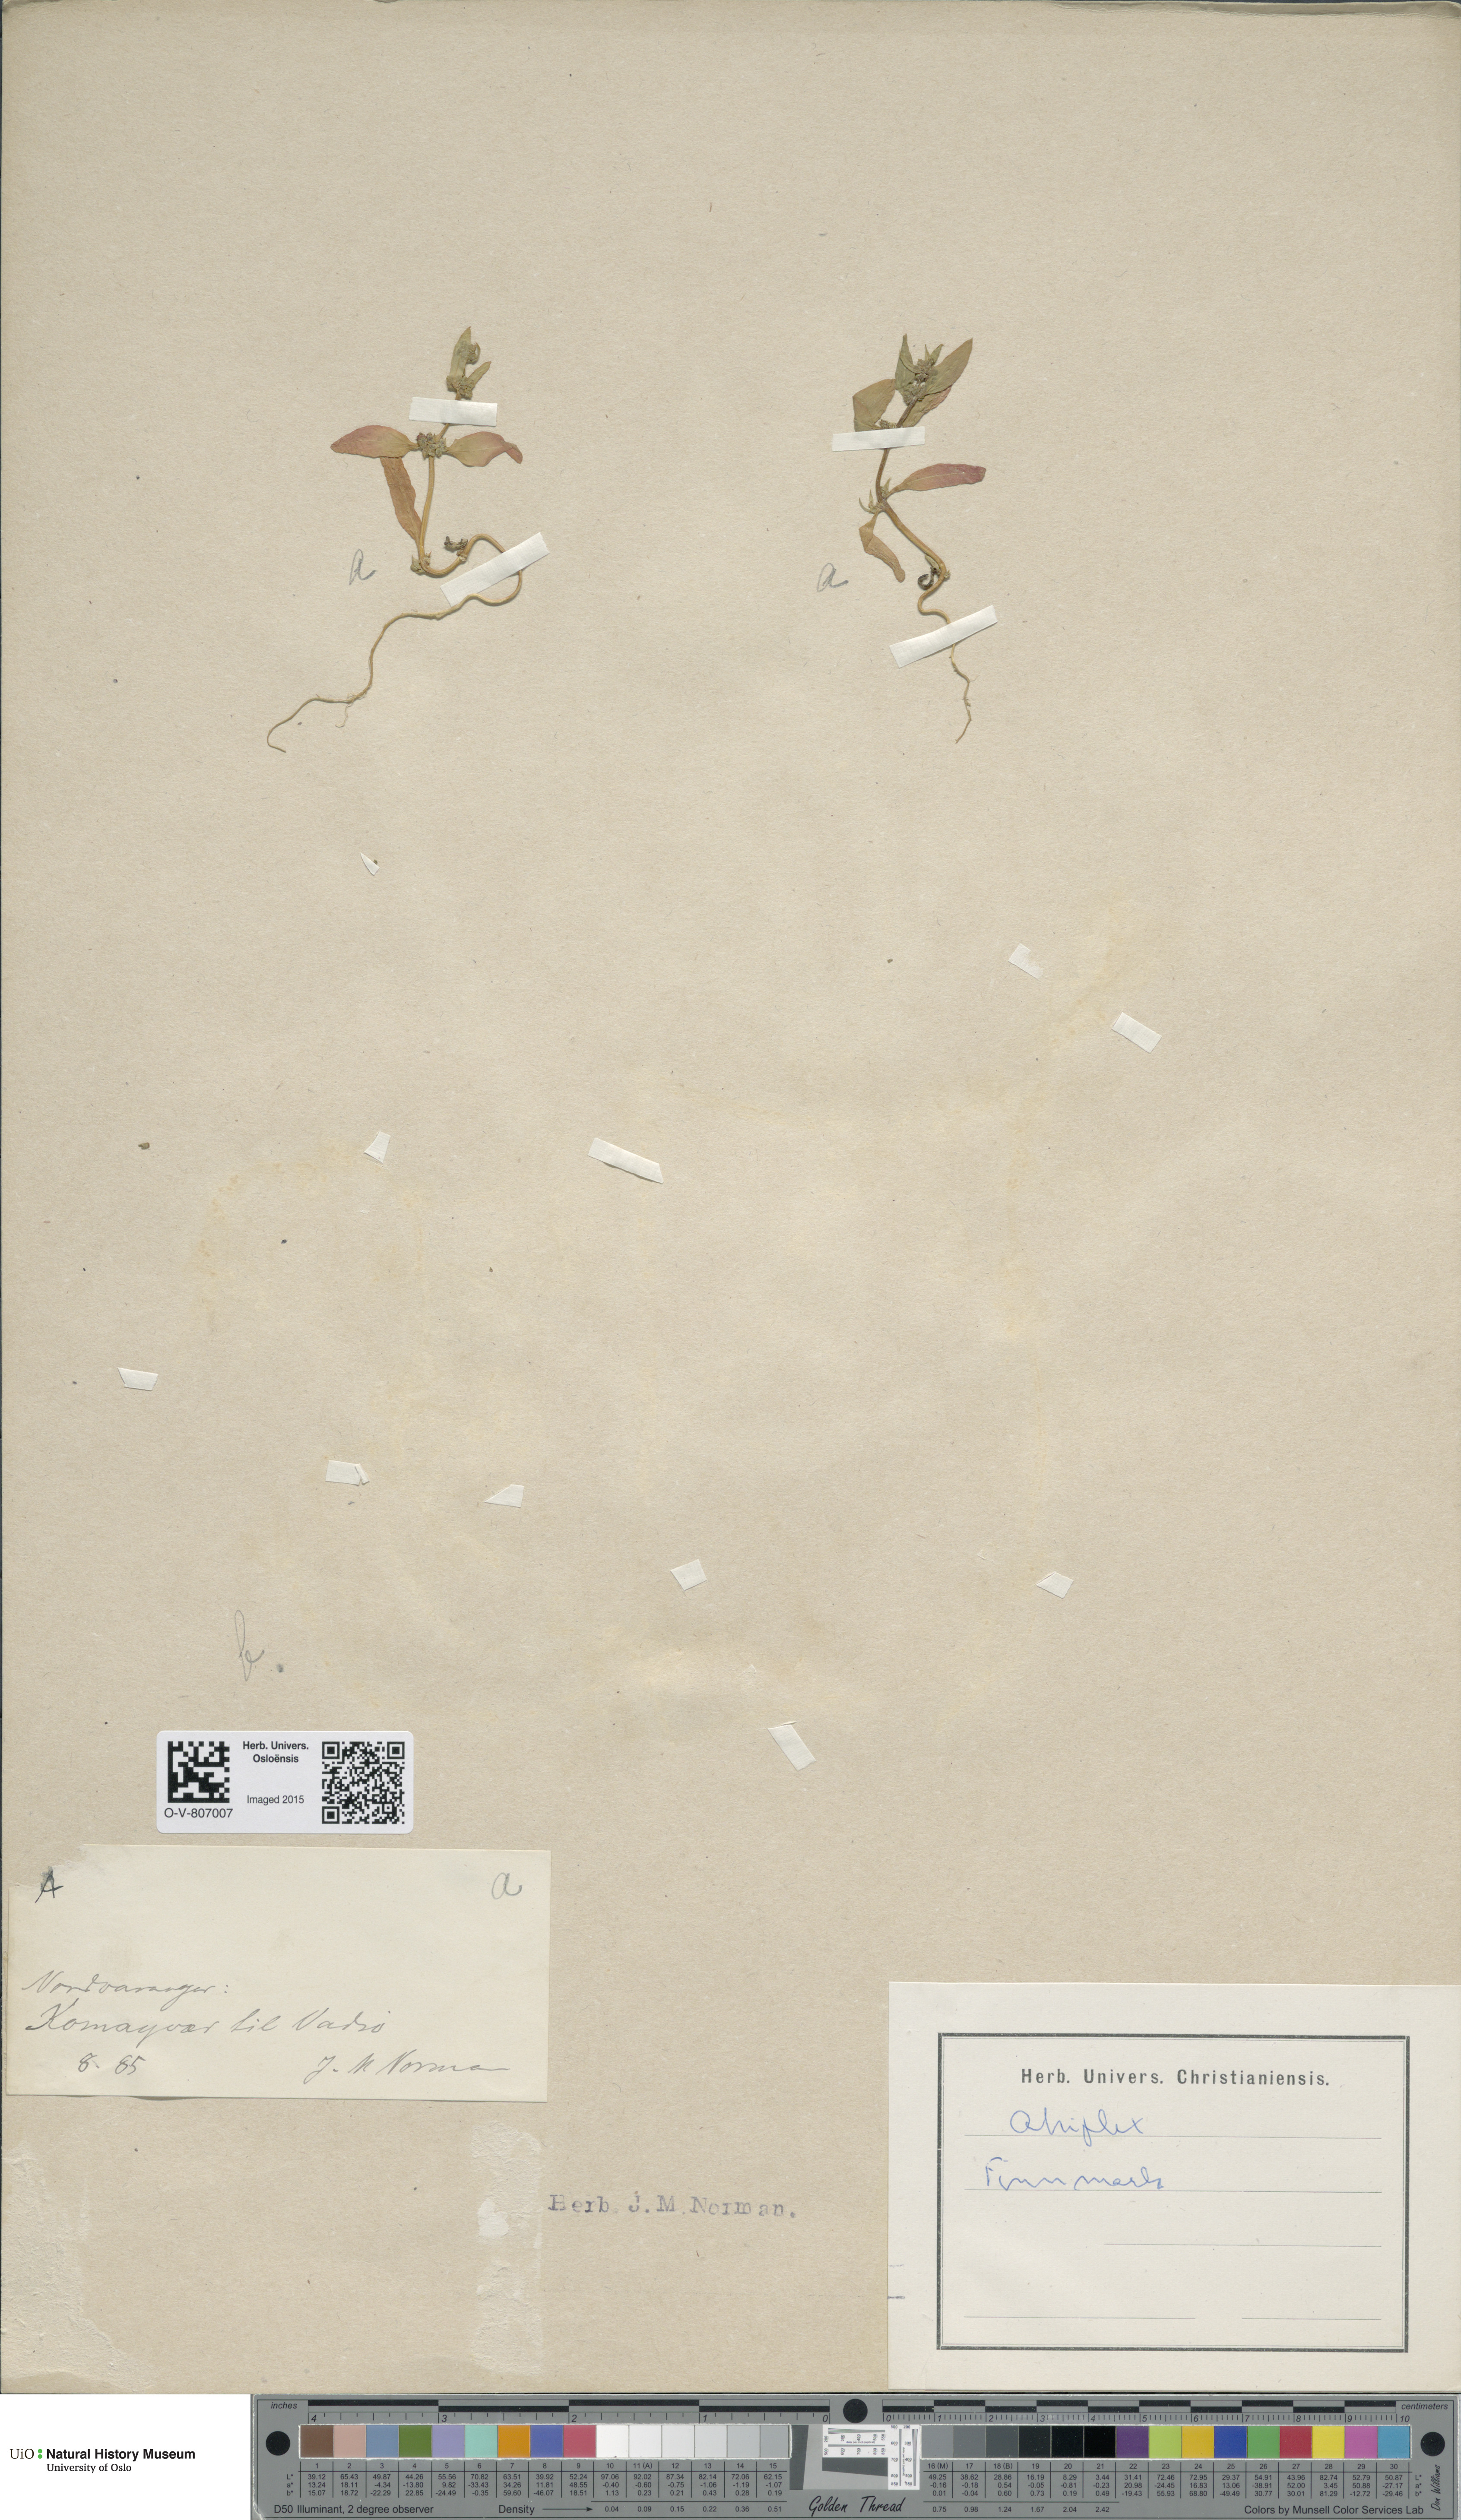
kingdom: Plantae
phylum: Tracheophyta
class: Magnoliopsida
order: Caryophyllales
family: Amaranthaceae
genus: Atriplex
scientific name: Atriplex
